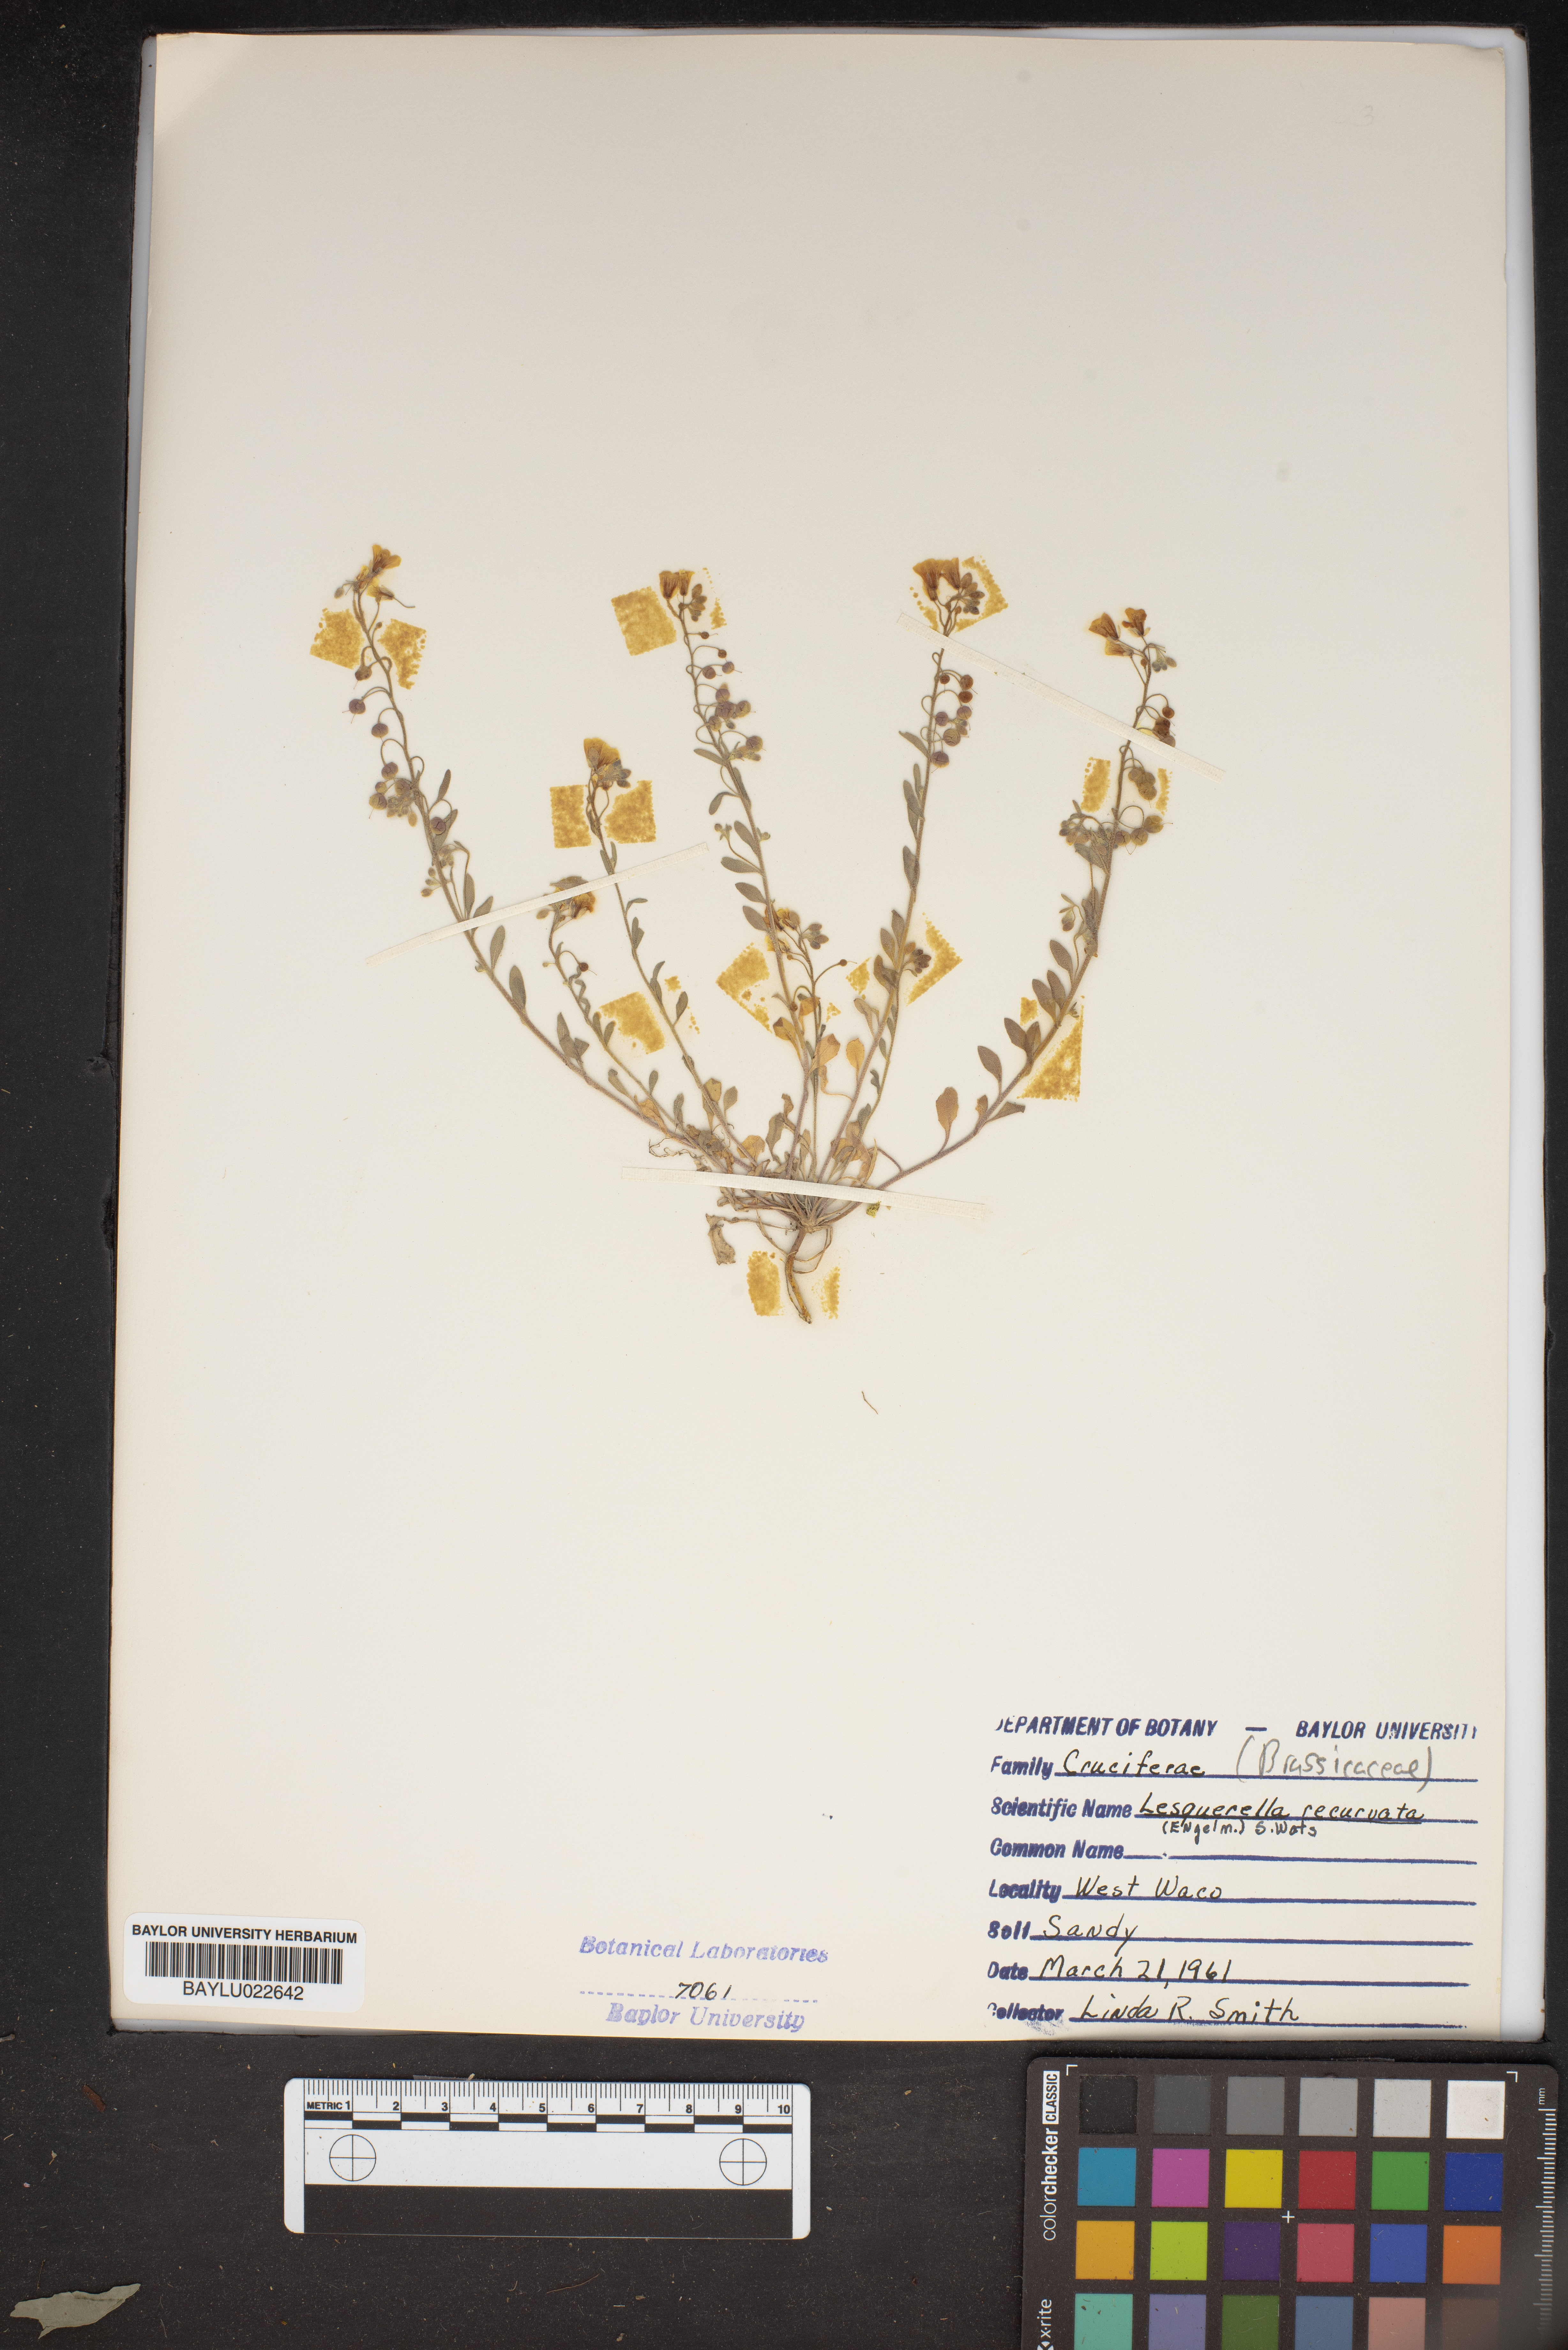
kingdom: Plantae
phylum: Tracheophyta
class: Magnoliopsida
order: Brassicales
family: Brassicaceae
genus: Physaria
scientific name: Physaria recurvata
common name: Gaslight bladderpod
